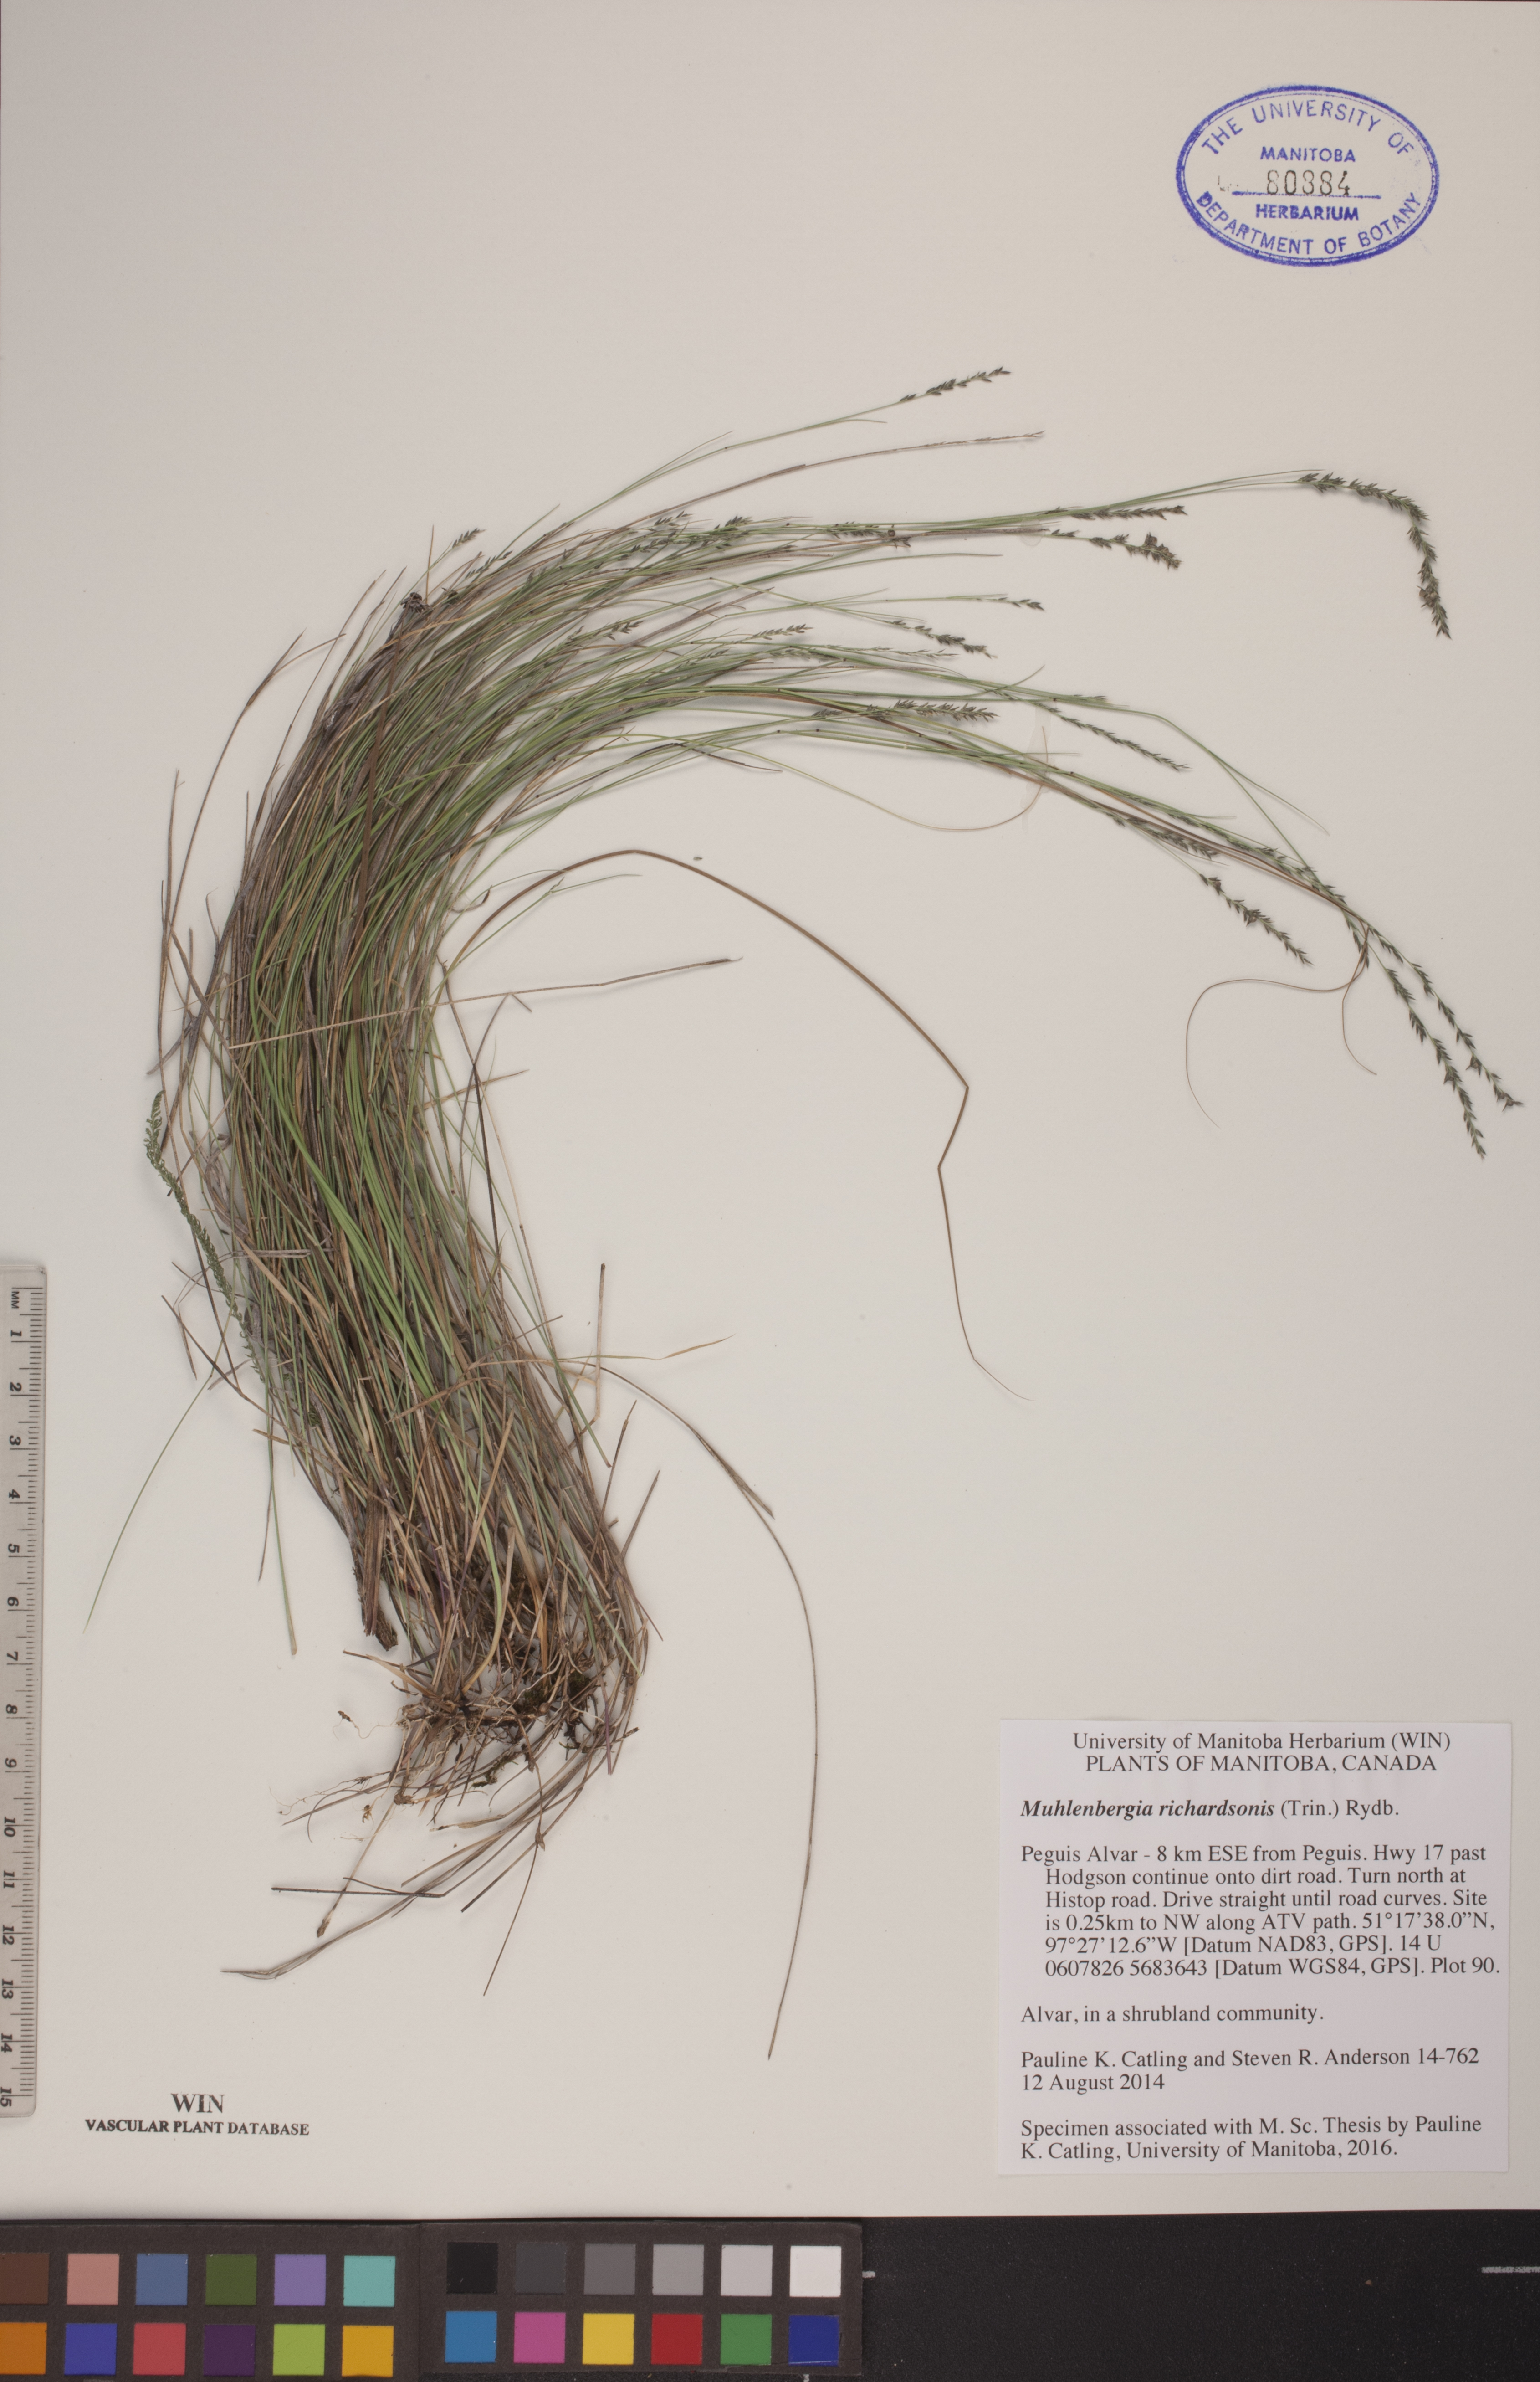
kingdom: Plantae
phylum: Tracheophyta
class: Liliopsida
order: Poales
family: Poaceae
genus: Muhlenbergia
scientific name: Muhlenbergia richardsonis
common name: Mat muhly
